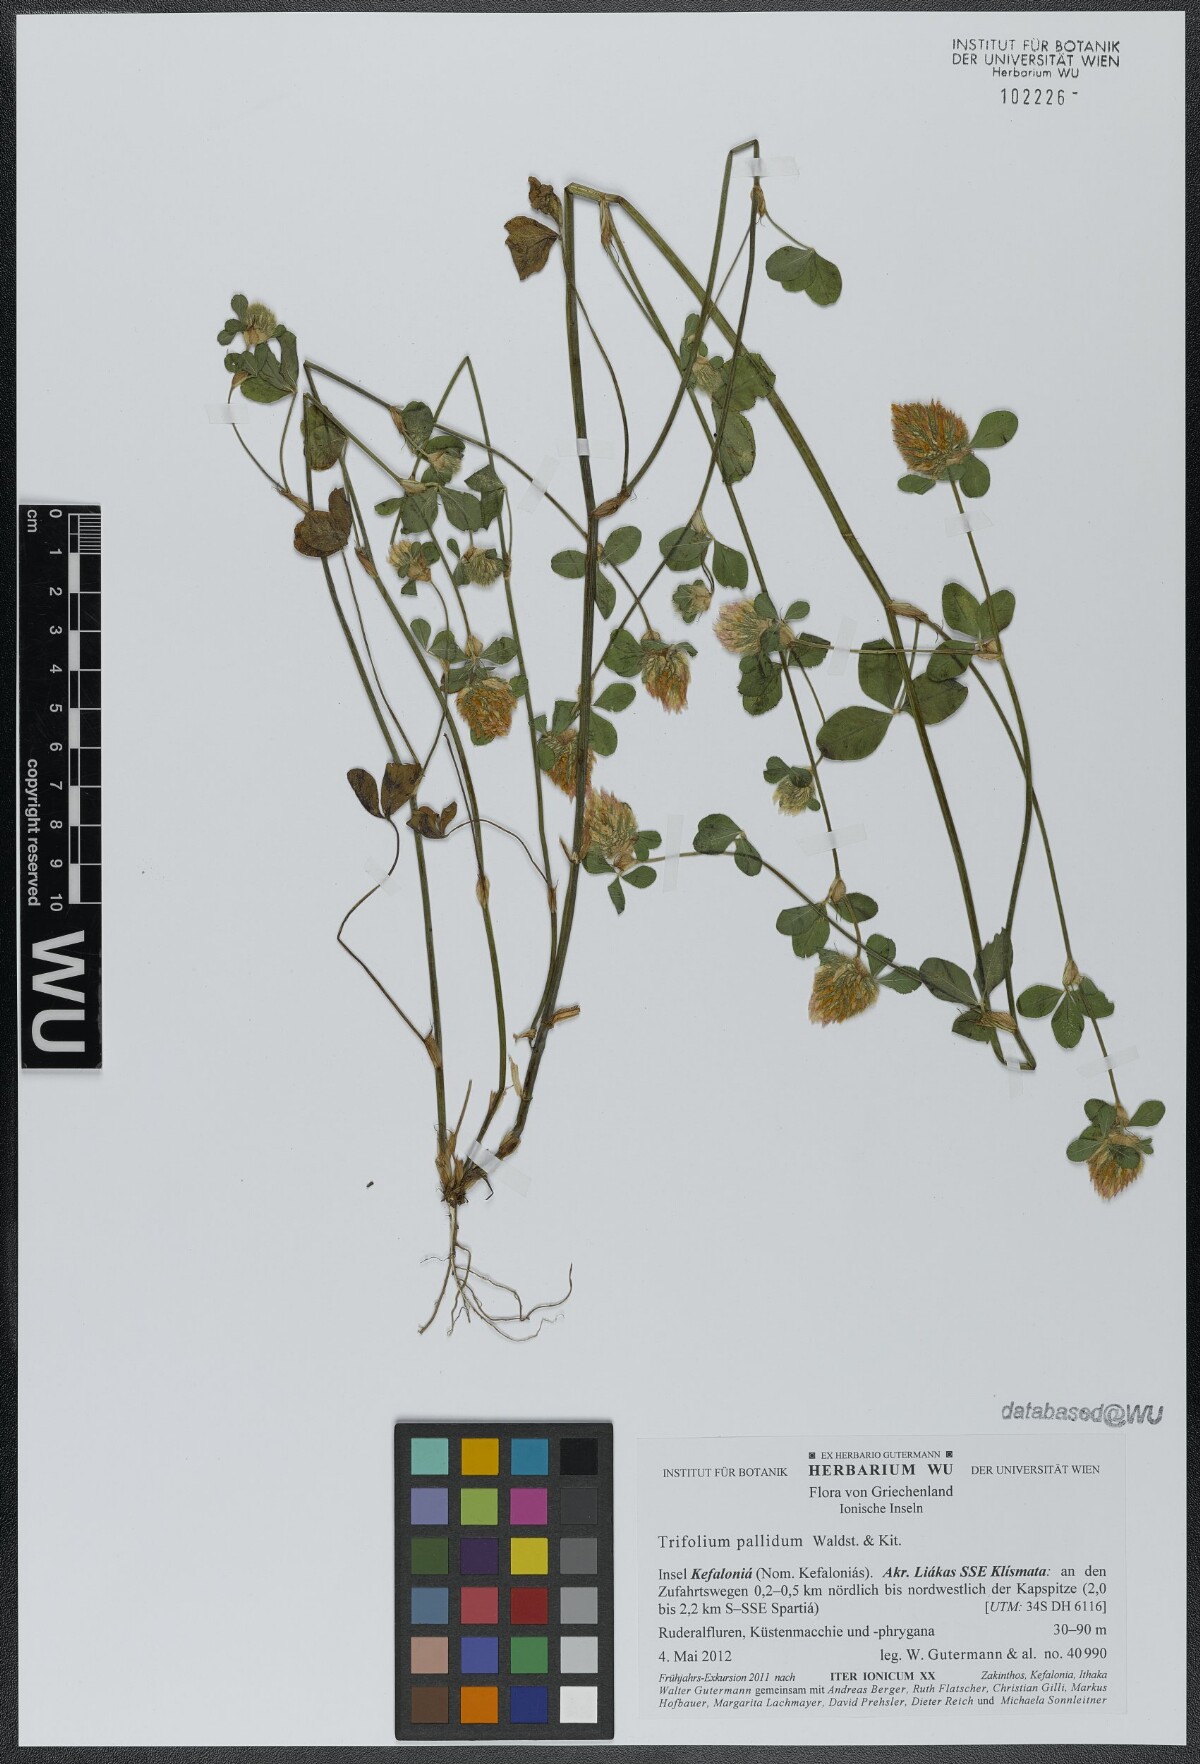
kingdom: Plantae
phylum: Tracheophyta
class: Magnoliopsida
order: Fabales
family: Fabaceae
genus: Trifolium
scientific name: Trifolium pallidum
